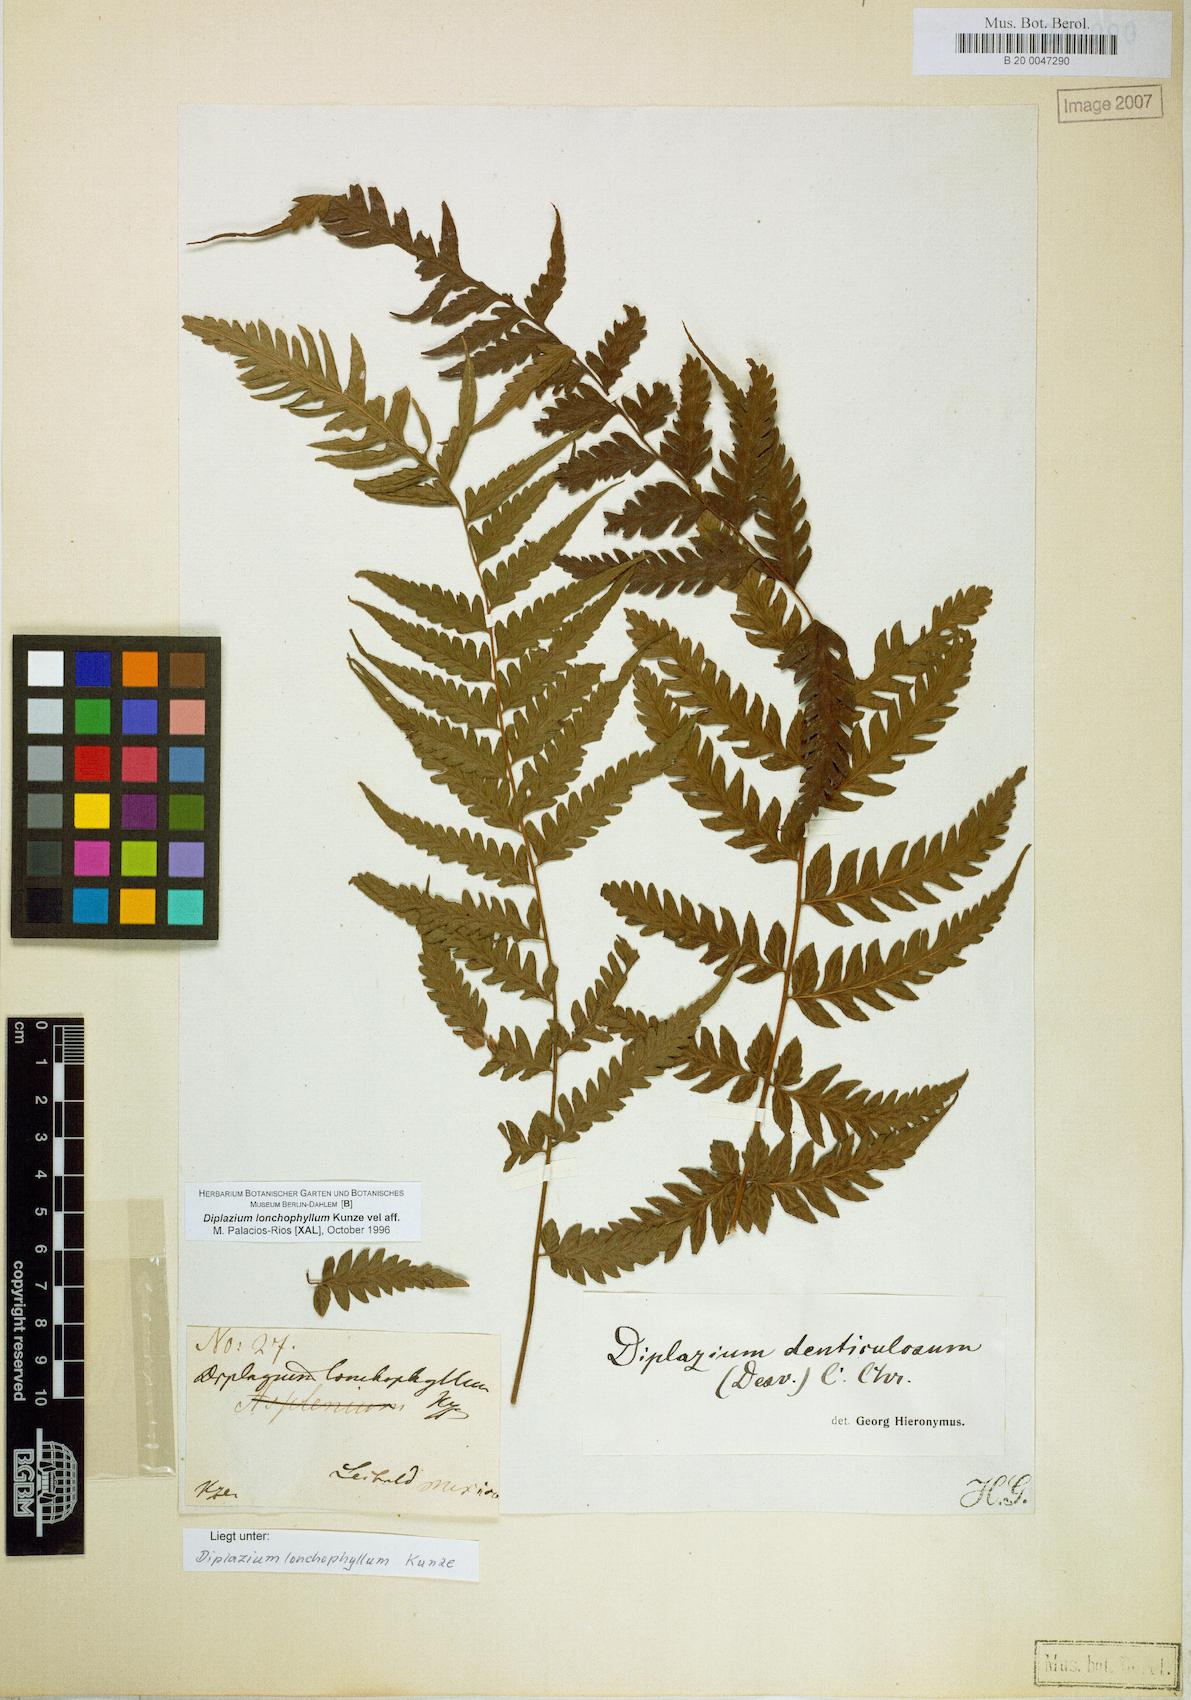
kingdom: Plantae
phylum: Tracheophyta
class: Polypodiopsida
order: Polypodiales
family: Athyriaceae
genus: Diplazium
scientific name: Diplazium lonchophyllum
